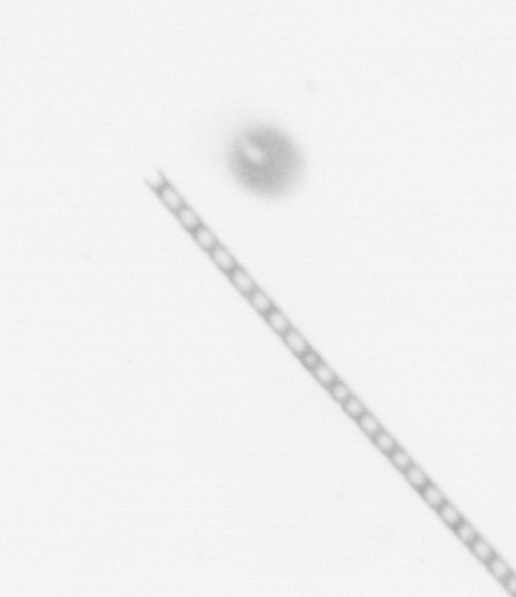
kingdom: Chromista
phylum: Ochrophyta
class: Bacillariophyceae
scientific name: Bacillariophyceae
